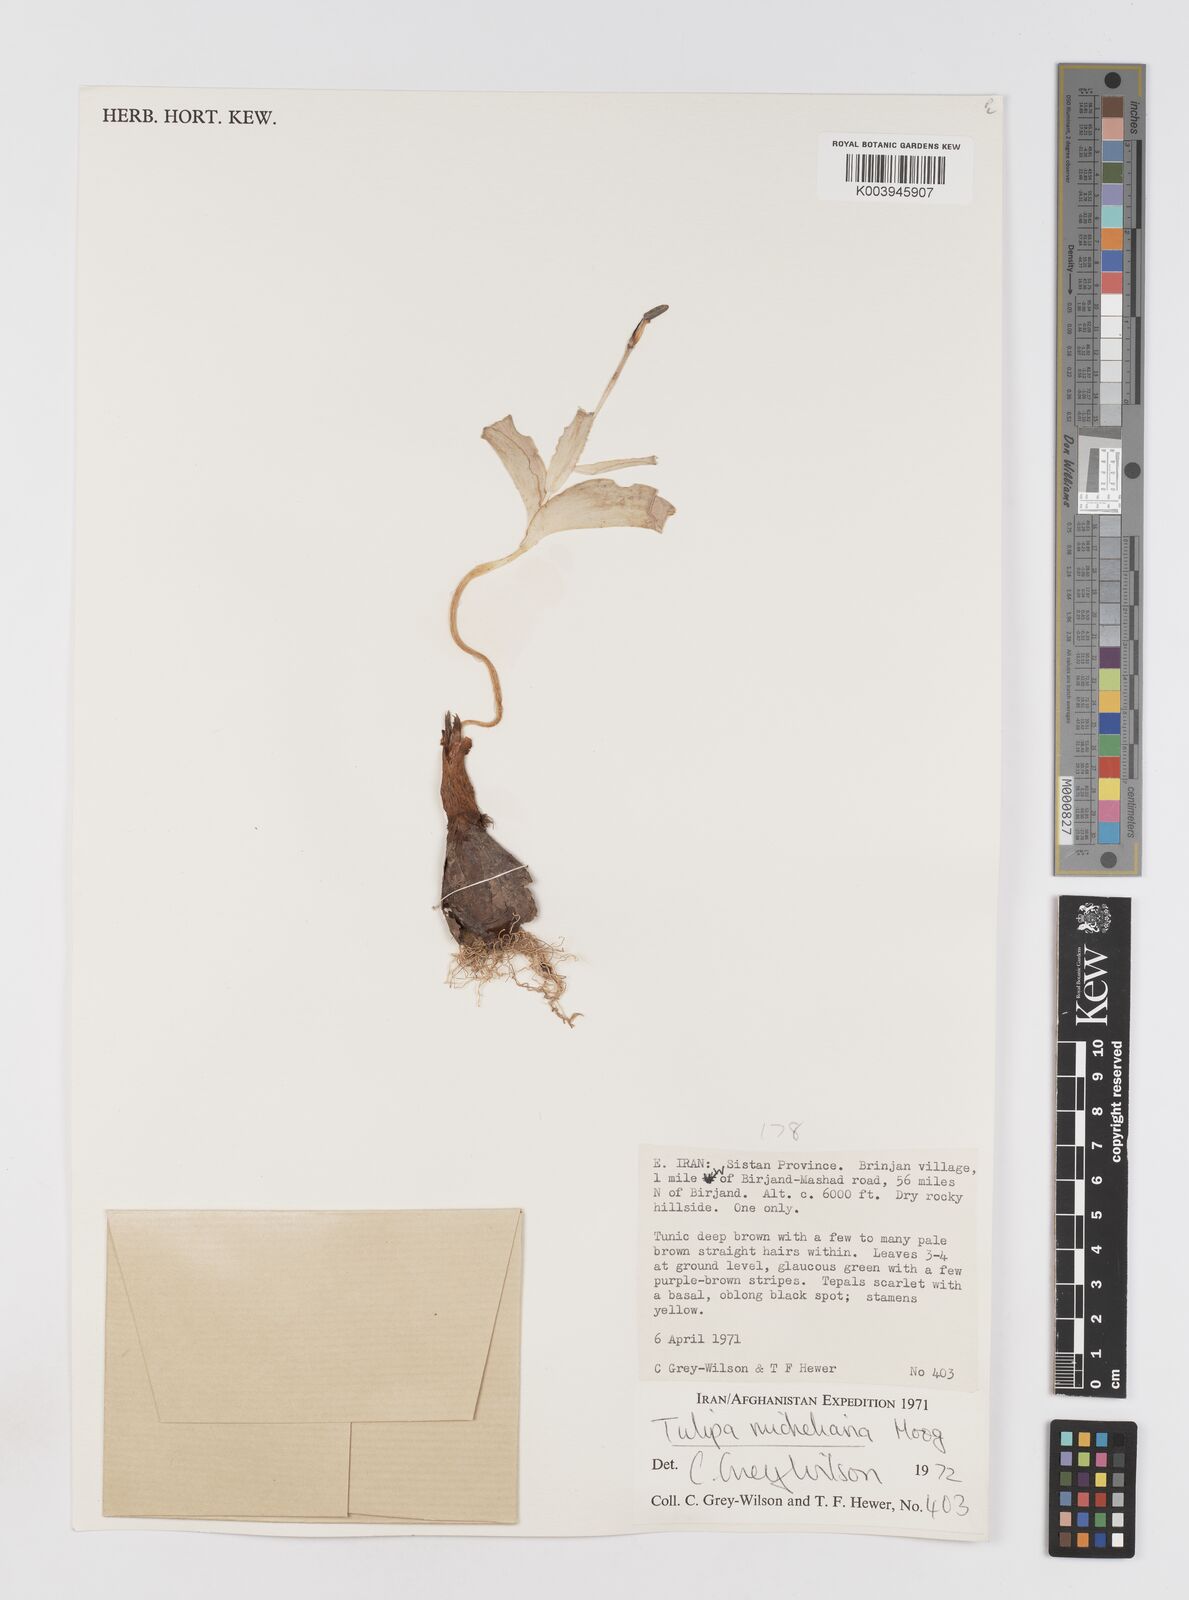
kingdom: Plantae
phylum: Tracheophyta
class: Liliopsida
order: Liliales
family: Liliaceae
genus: Tulipa
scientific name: Tulipa undulatifolia
